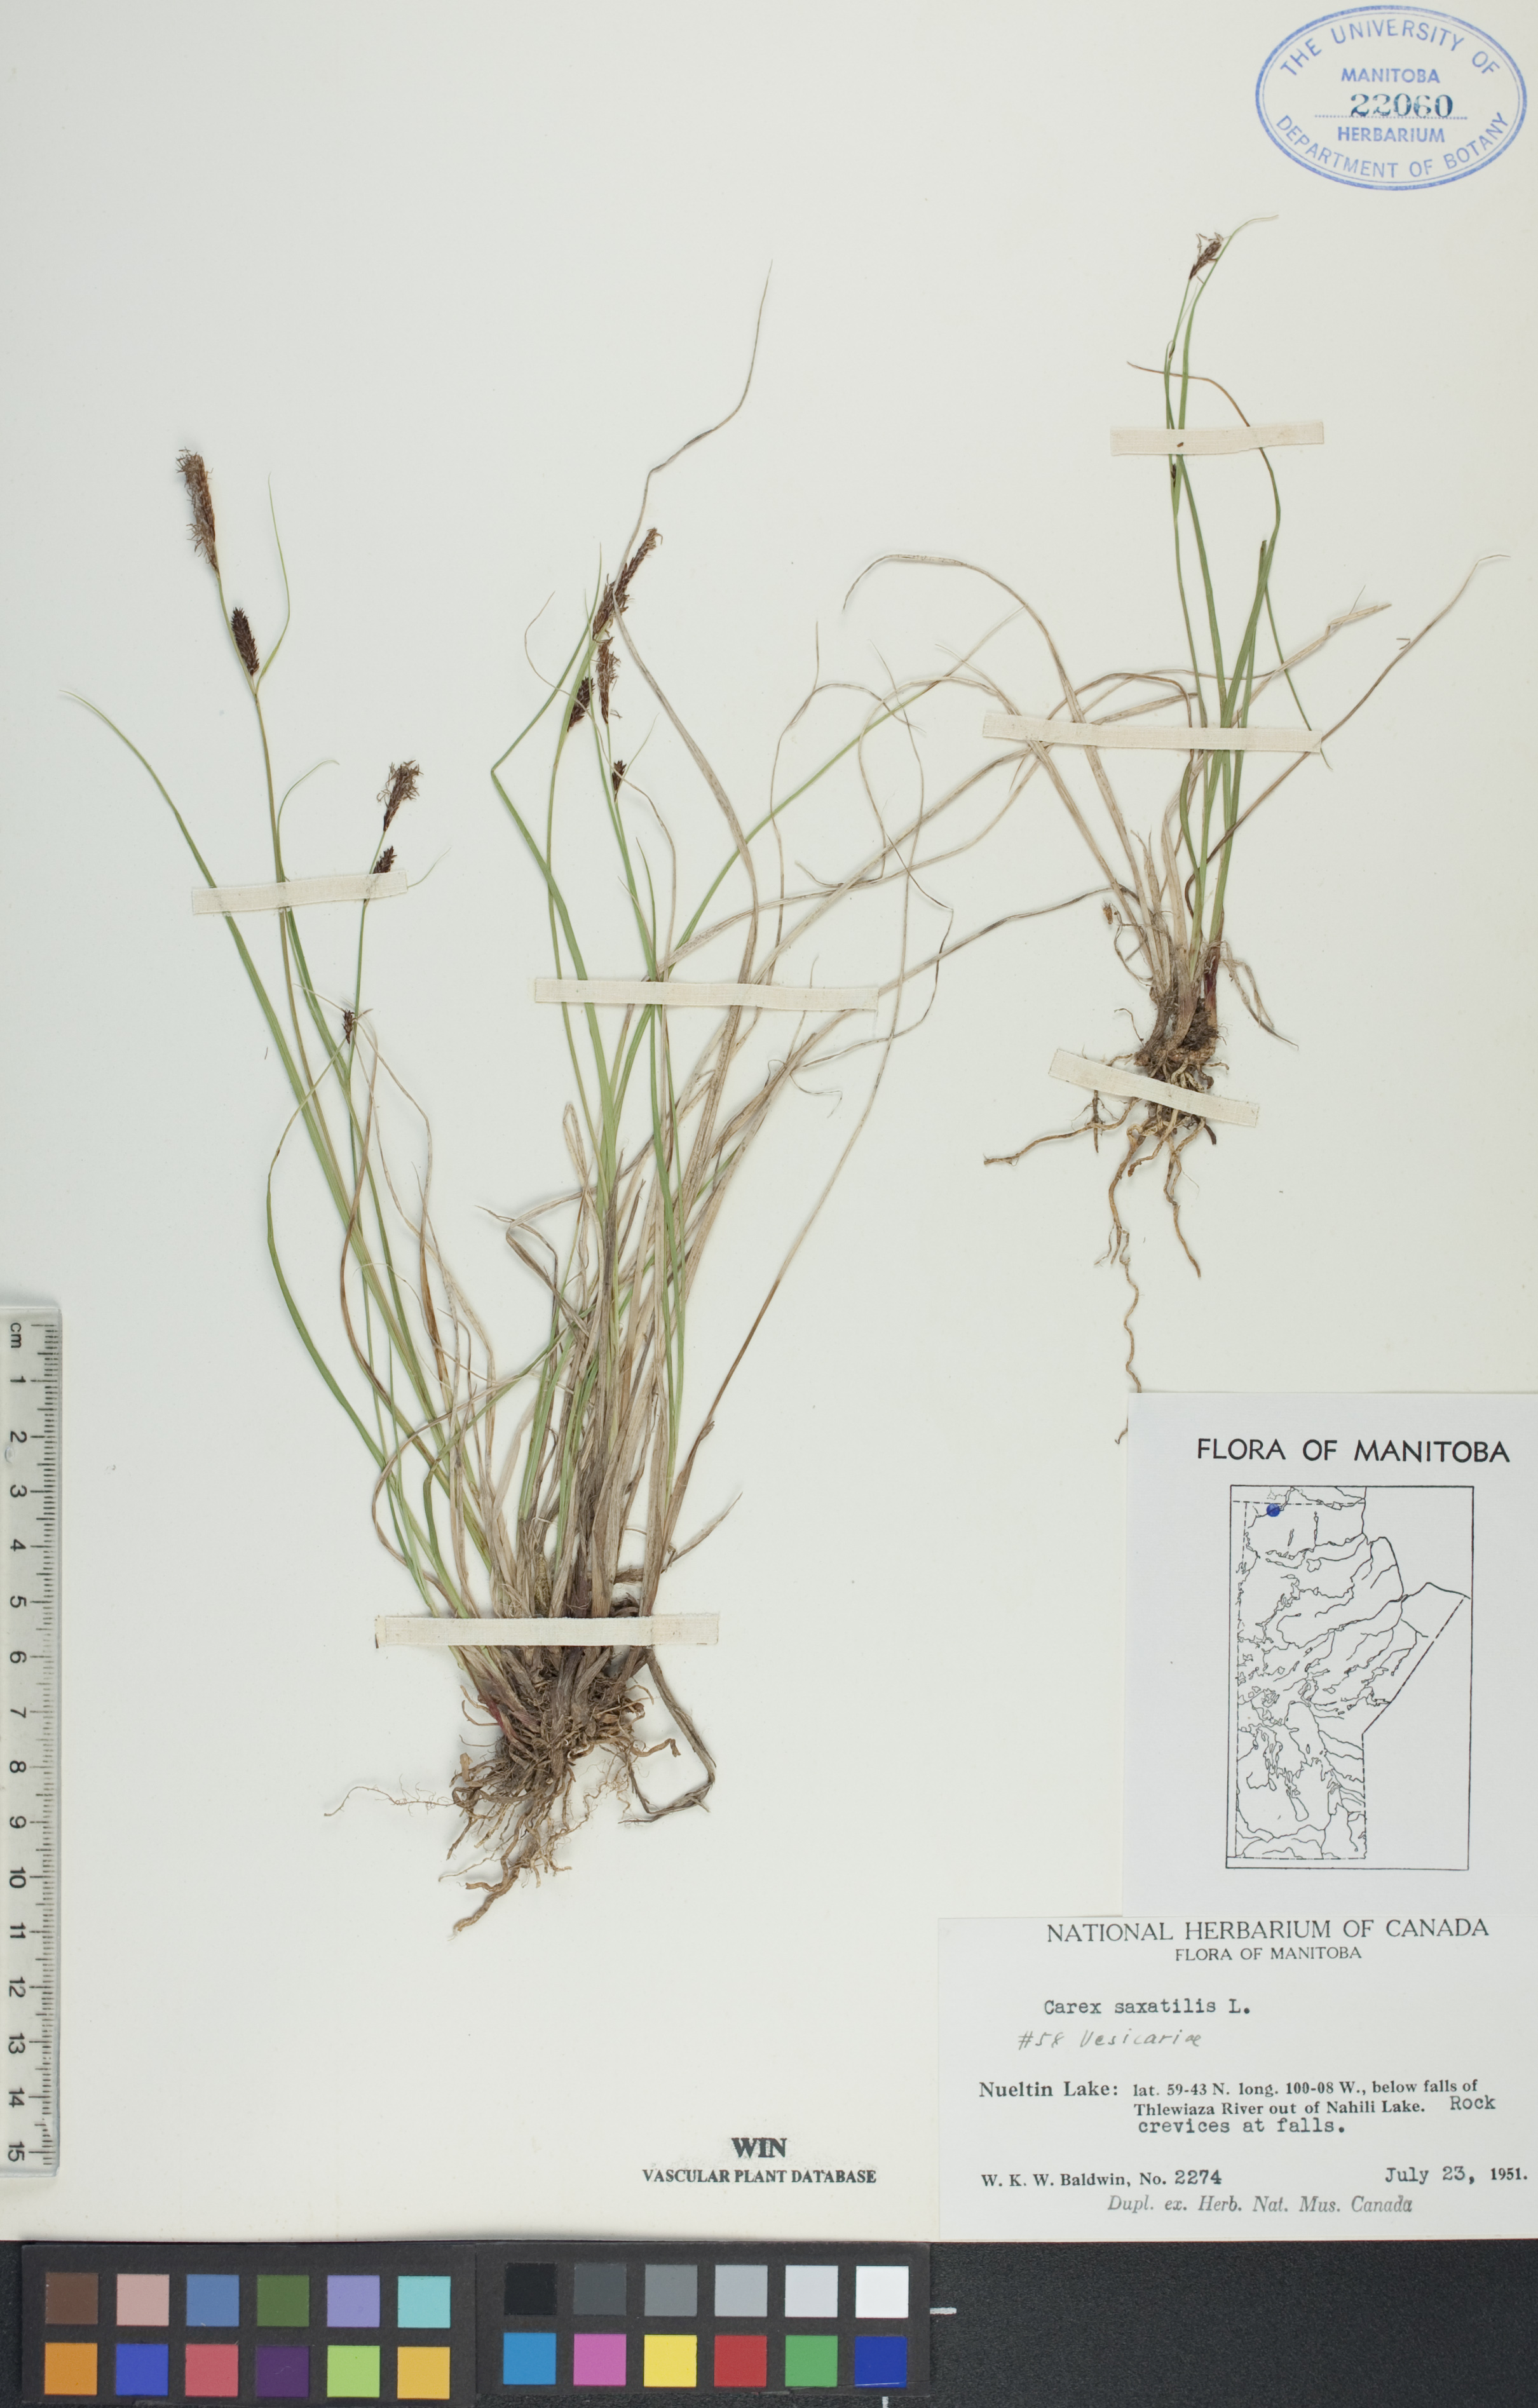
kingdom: Plantae
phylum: Tracheophyta
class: Liliopsida
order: Poales
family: Cyperaceae
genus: Carex
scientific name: Carex saxatilis
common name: Russet sedge
